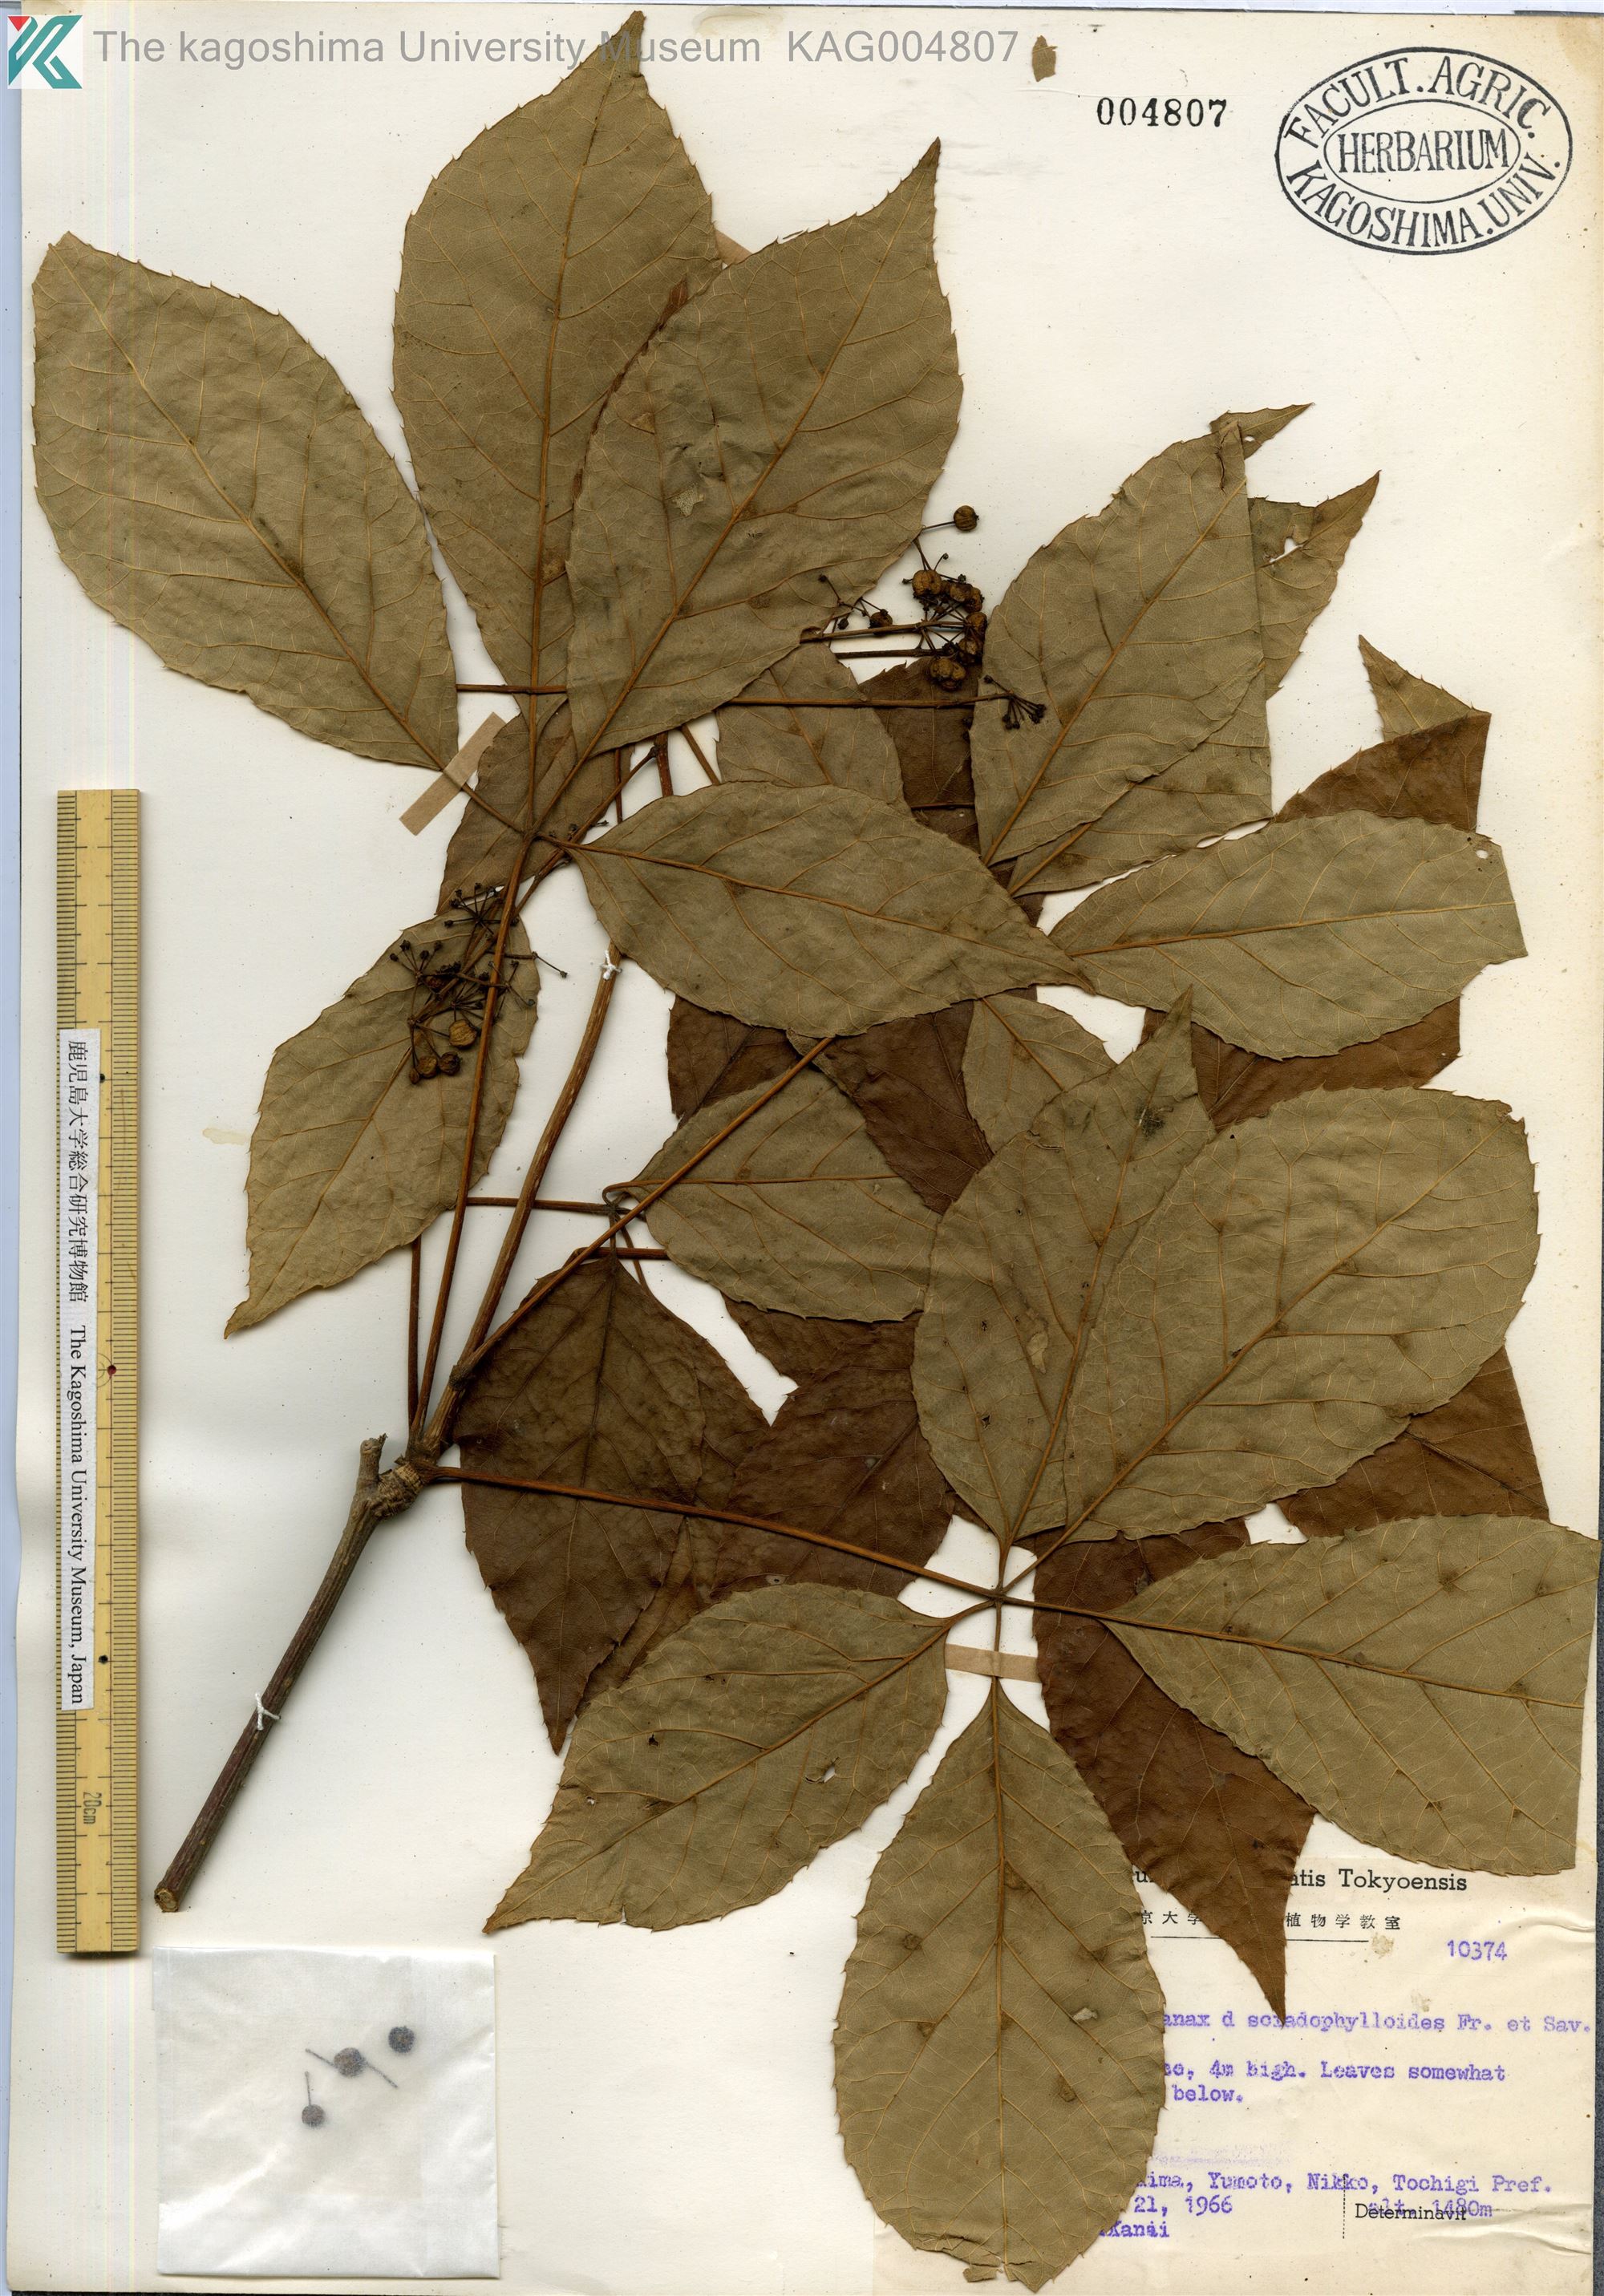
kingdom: Plantae
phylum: Tracheophyta
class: Magnoliopsida
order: Apiales
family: Araliaceae
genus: Chengiopanax
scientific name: Chengiopanax sciadophylloides
